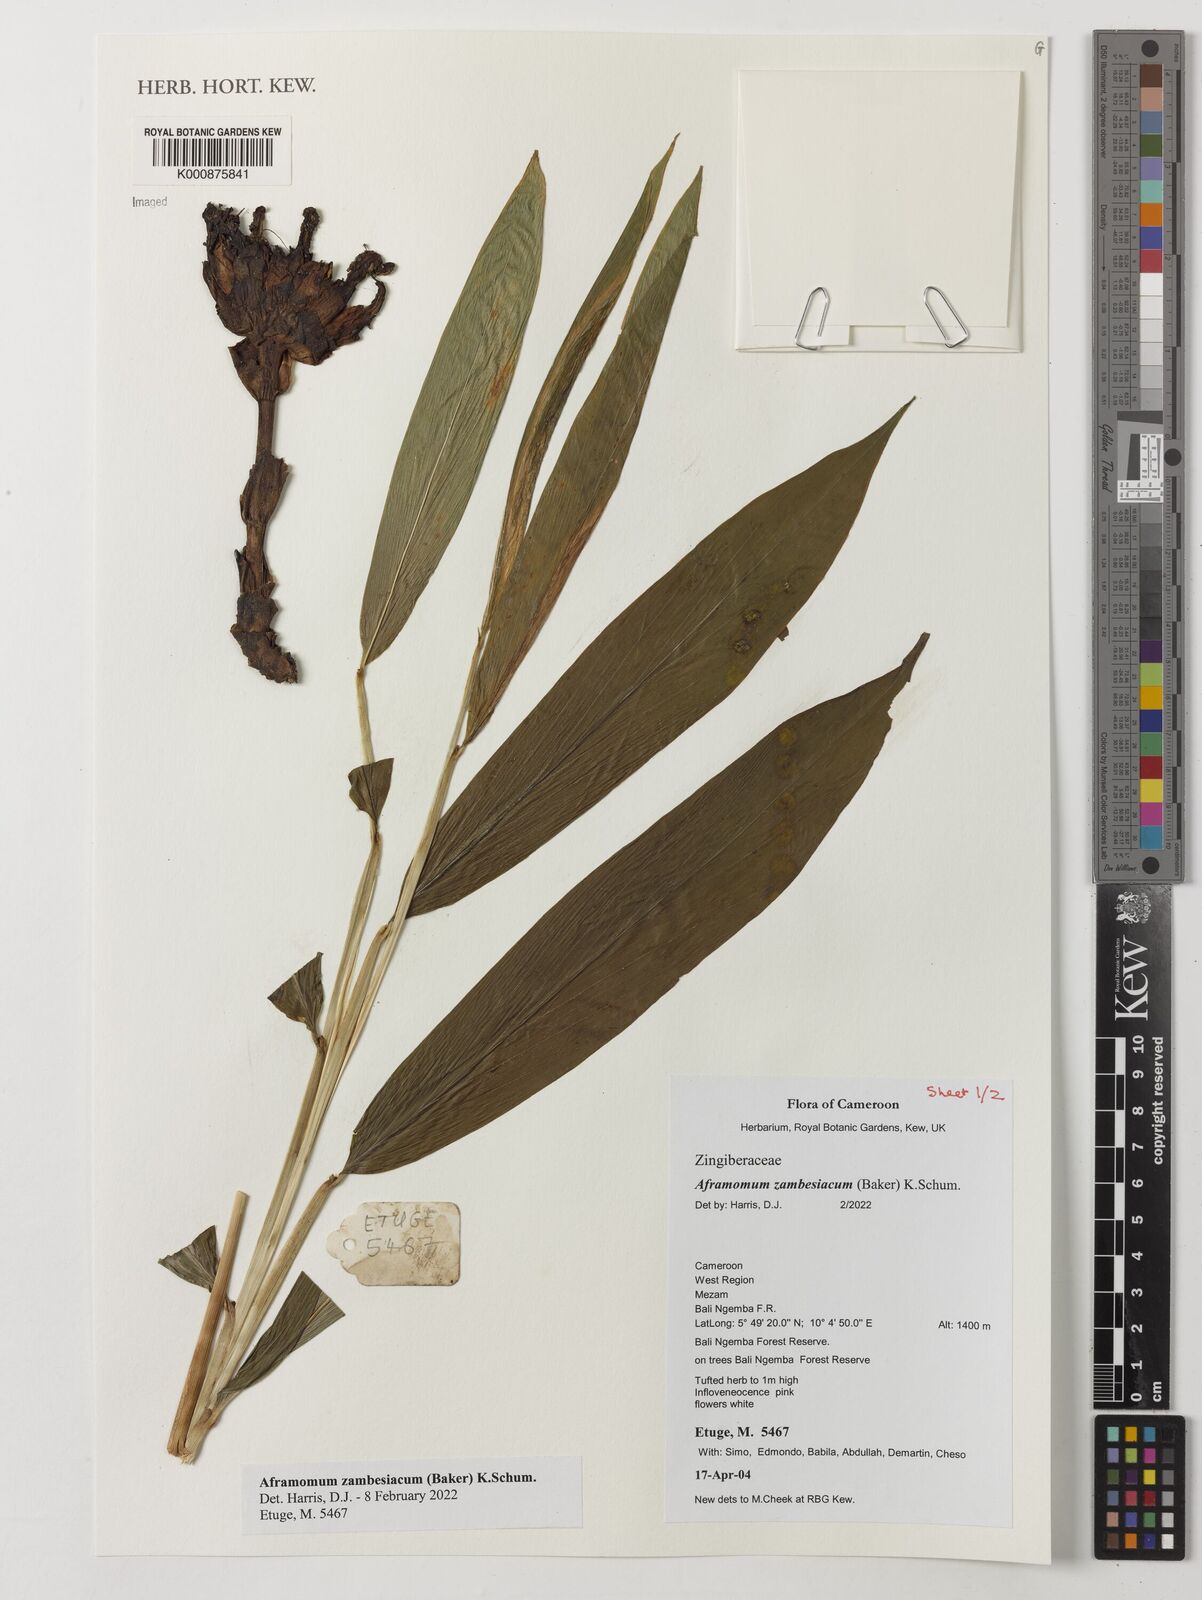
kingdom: Plantae
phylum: Tracheophyta
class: Liliopsida
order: Zingiberales
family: Zingiberaceae
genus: Aframomum
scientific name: Aframomum zambesiacum
